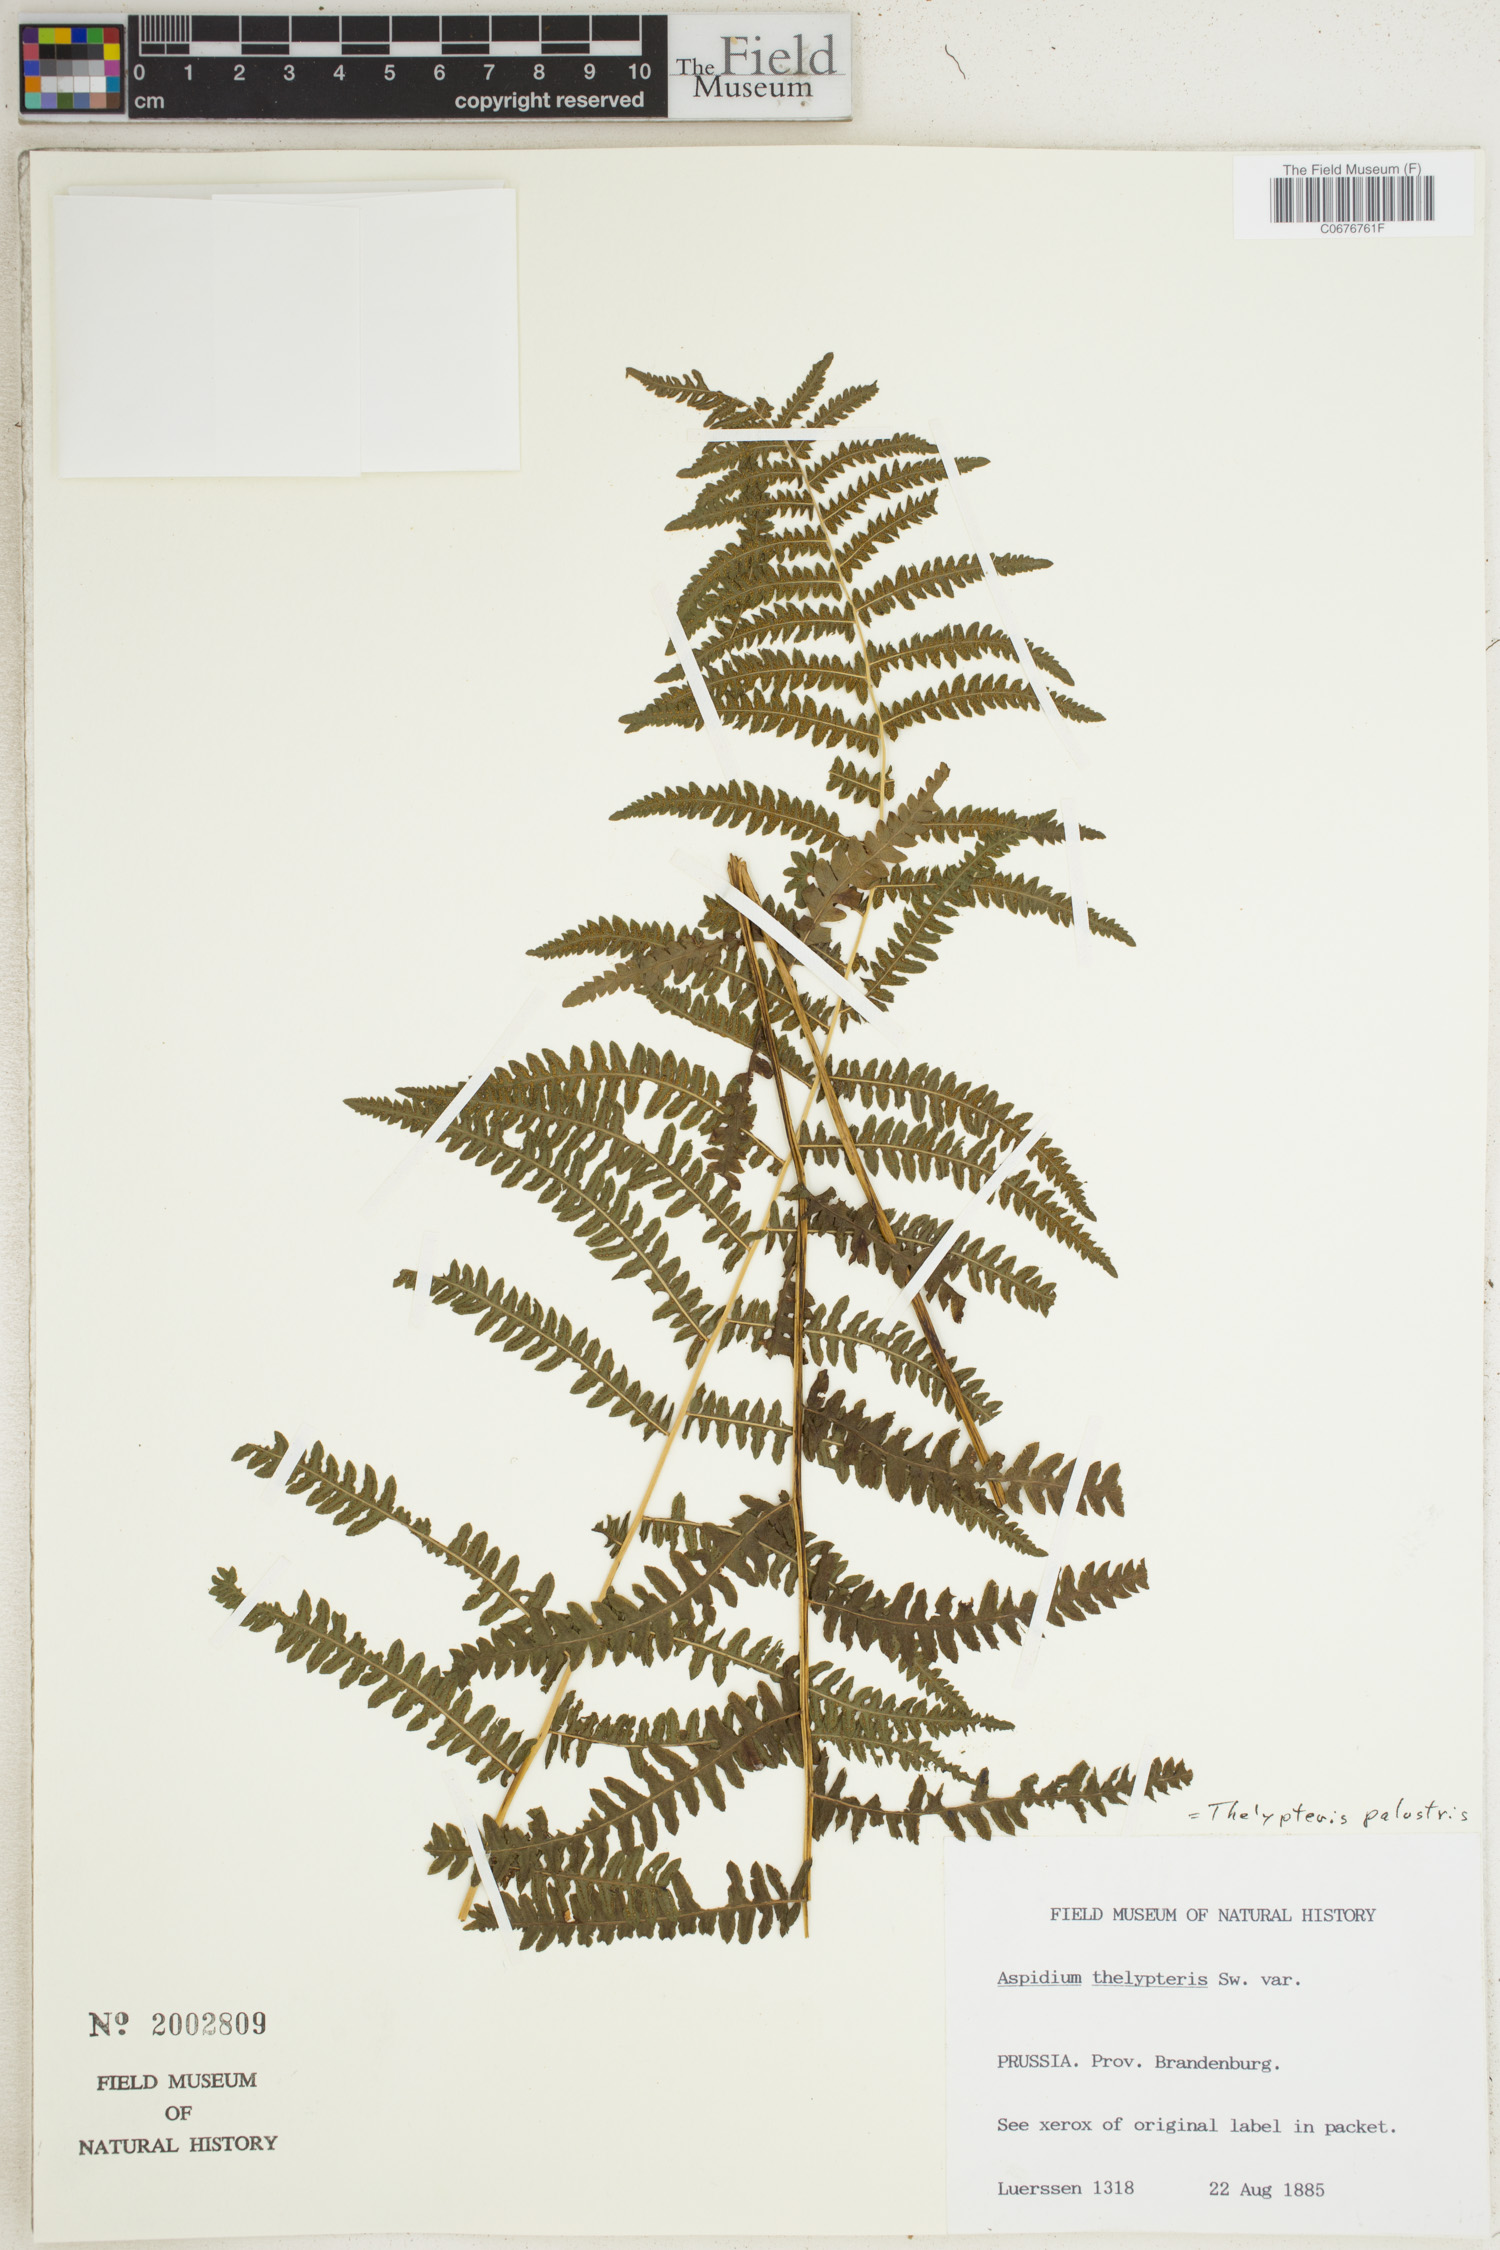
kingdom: Plantae
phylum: Tracheophyta
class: Polypodiopsida
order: Polypodiales
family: Thelypteridaceae
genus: Thelypteris
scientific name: Thelypteris palustris
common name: Marsh fern
